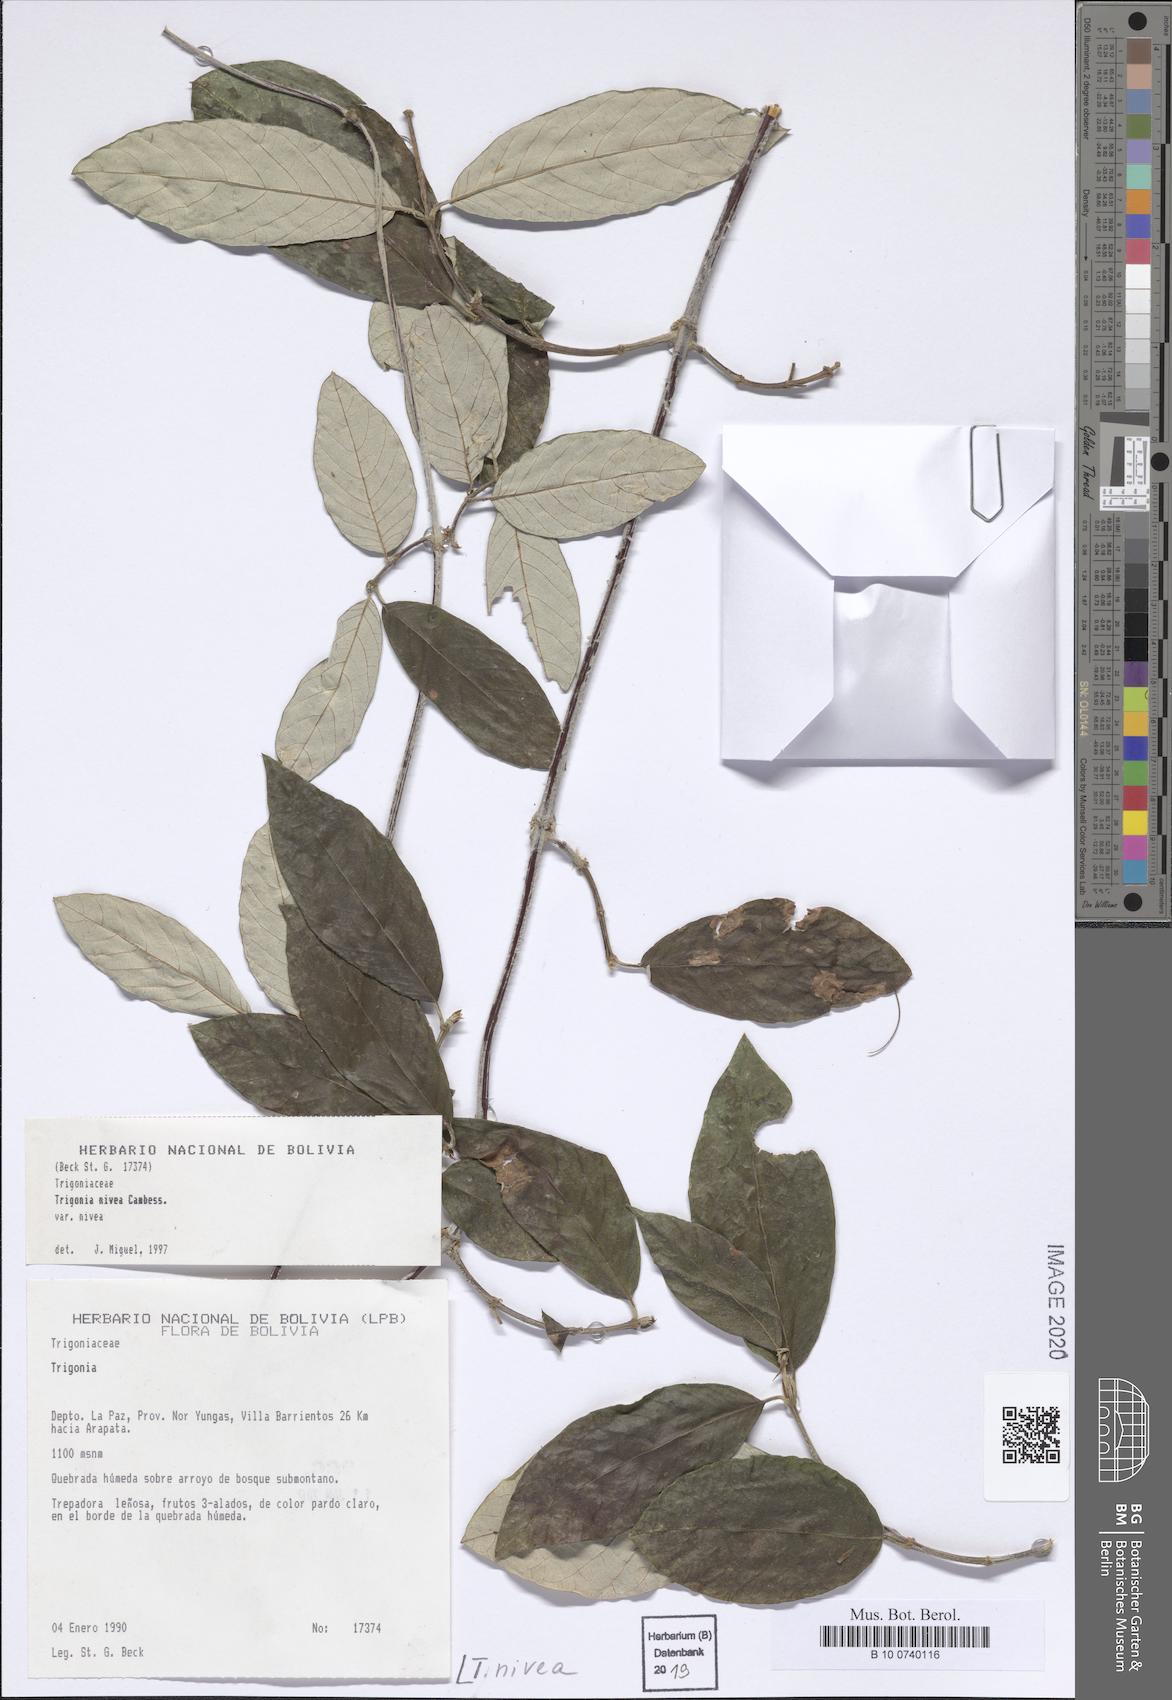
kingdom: Plantae
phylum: Tracheophyta
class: Magnoliopsida
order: Malpighiales
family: Trigoniaceae
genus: Trigonia
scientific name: Trigonia nivea
